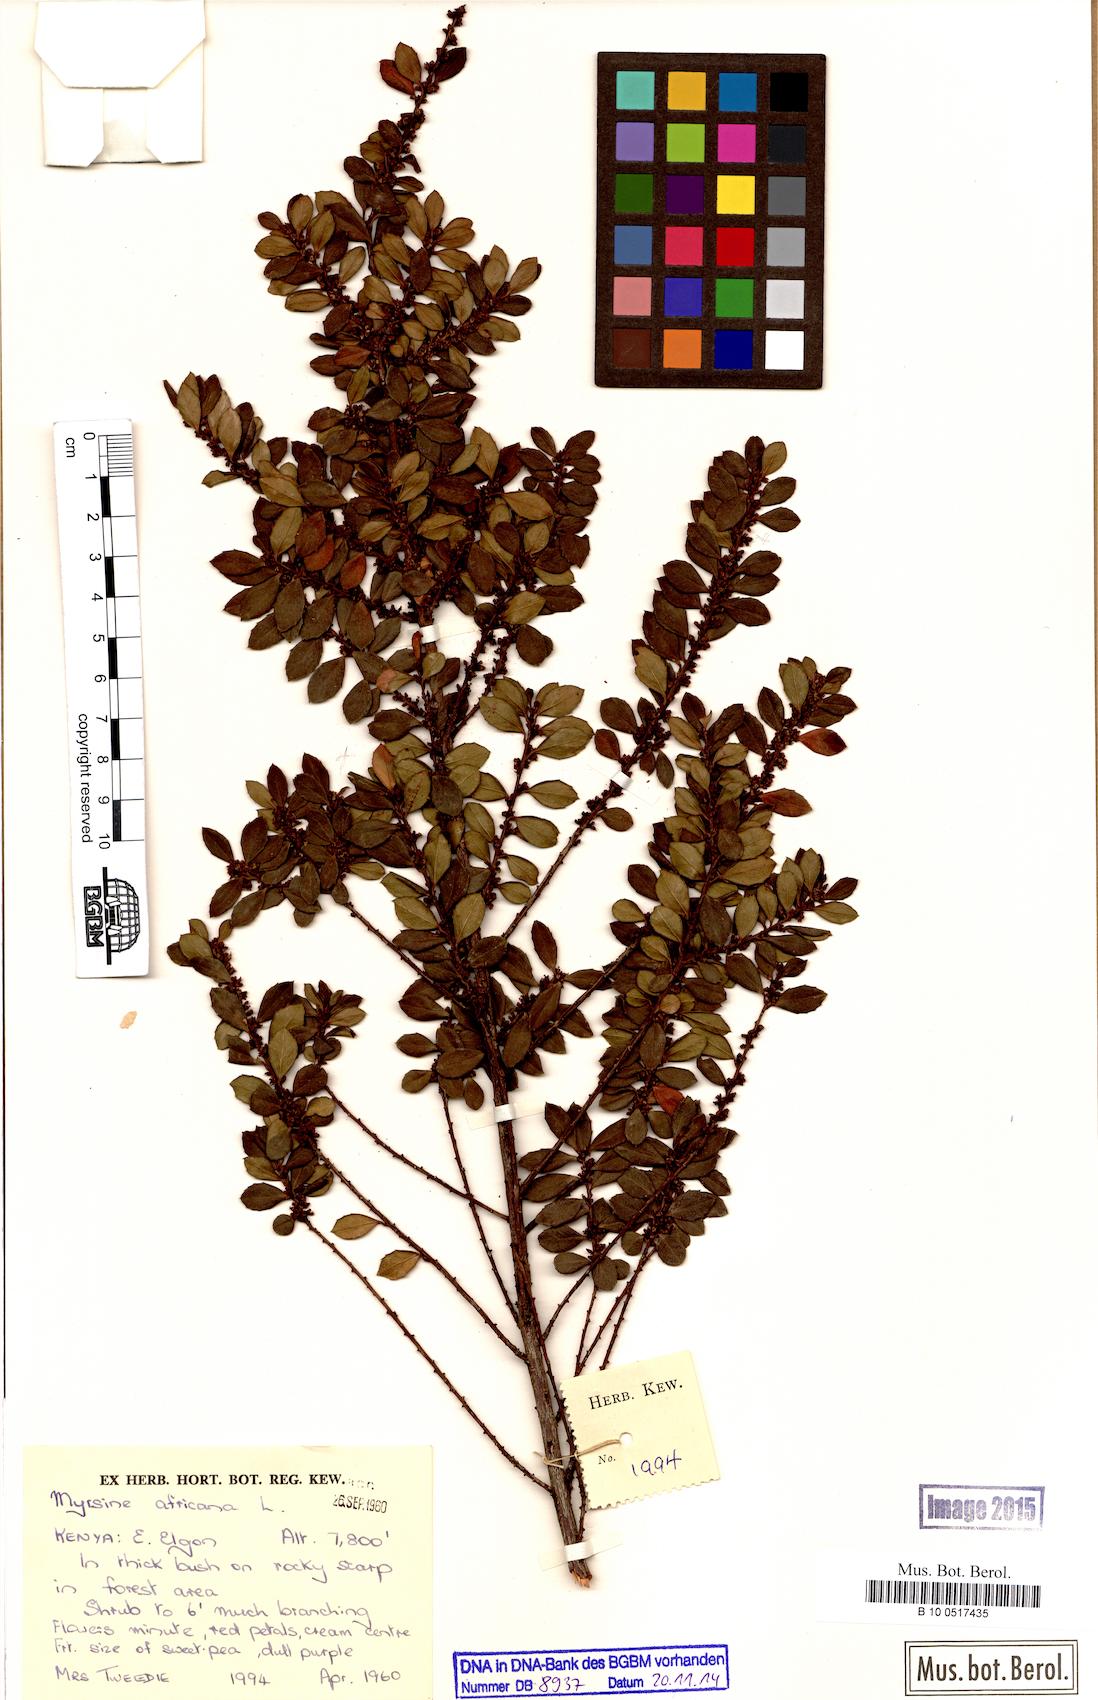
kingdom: Plantae
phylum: Tracheophyta
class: Magnoliopsida
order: Ericales
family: Primulaceae
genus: Myrsine
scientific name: Myrsine africana
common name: African-boxwood
